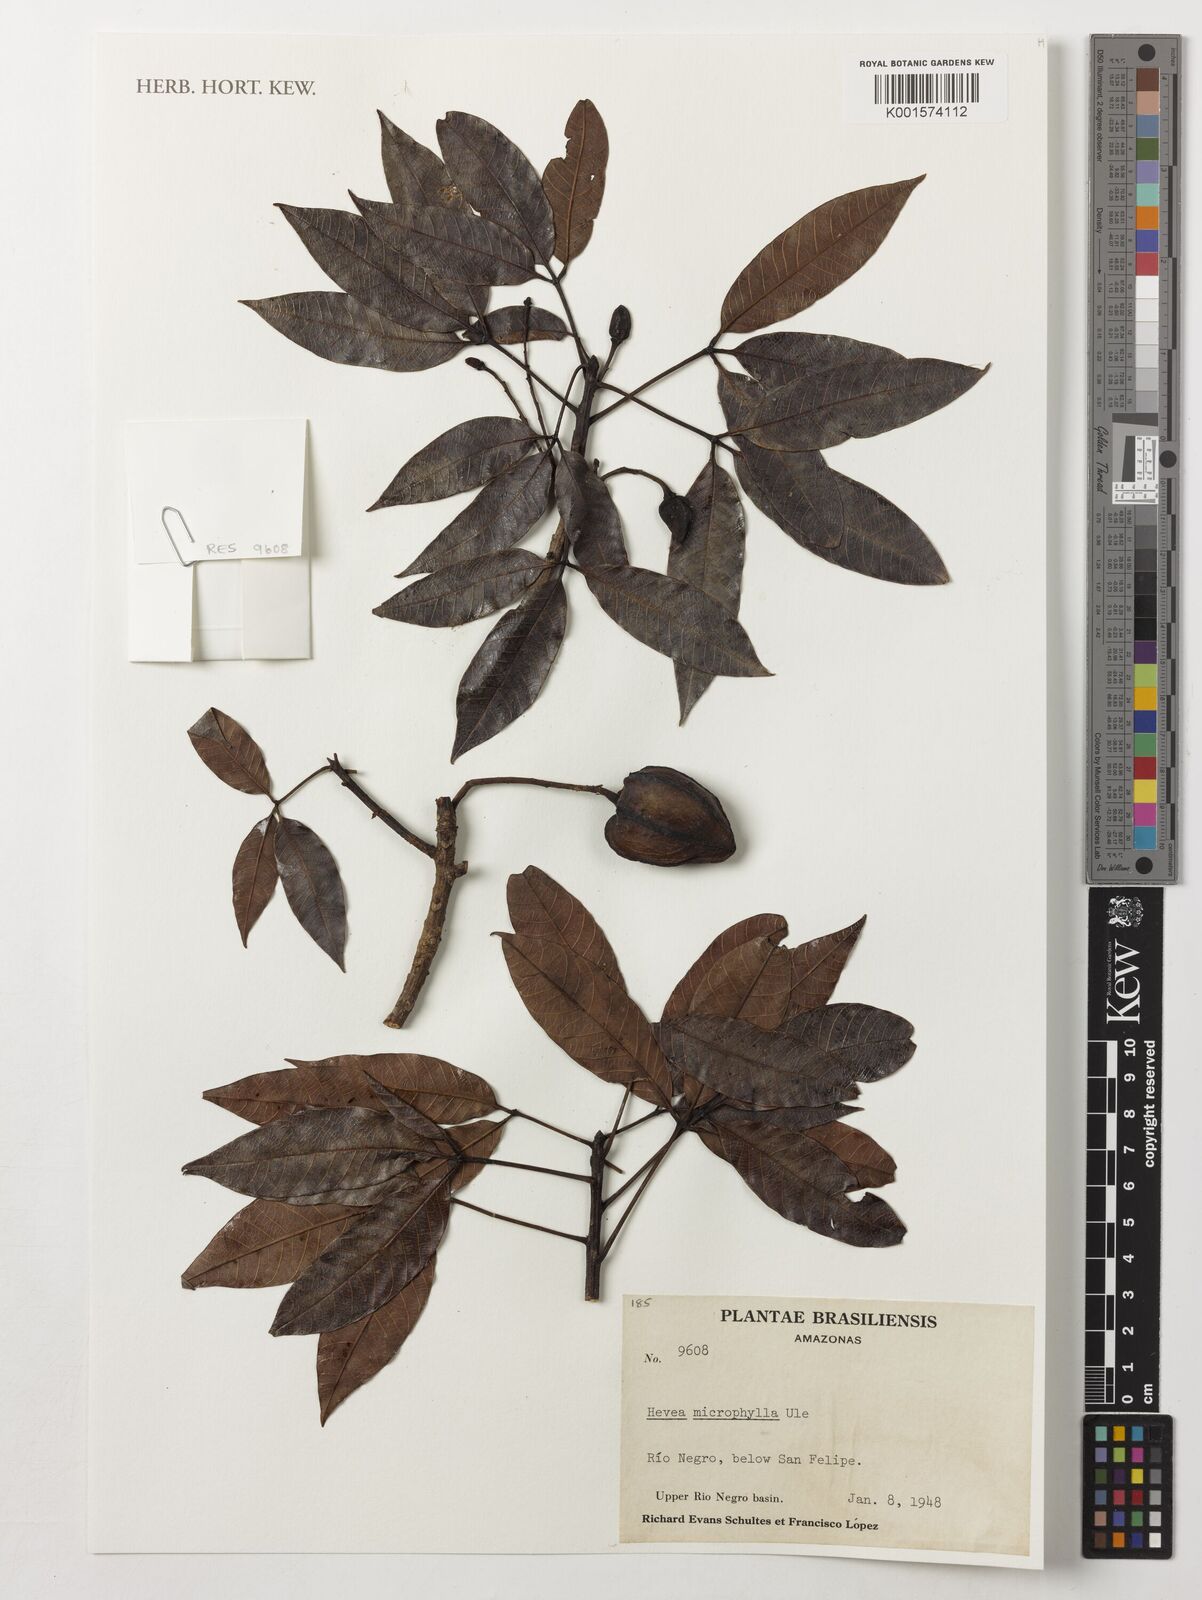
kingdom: Plantae
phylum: Tracheophyta
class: Magnoliopsida
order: Malpighiales
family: Euphorbiaceae
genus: Hevea
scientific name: Hevea microphylla
